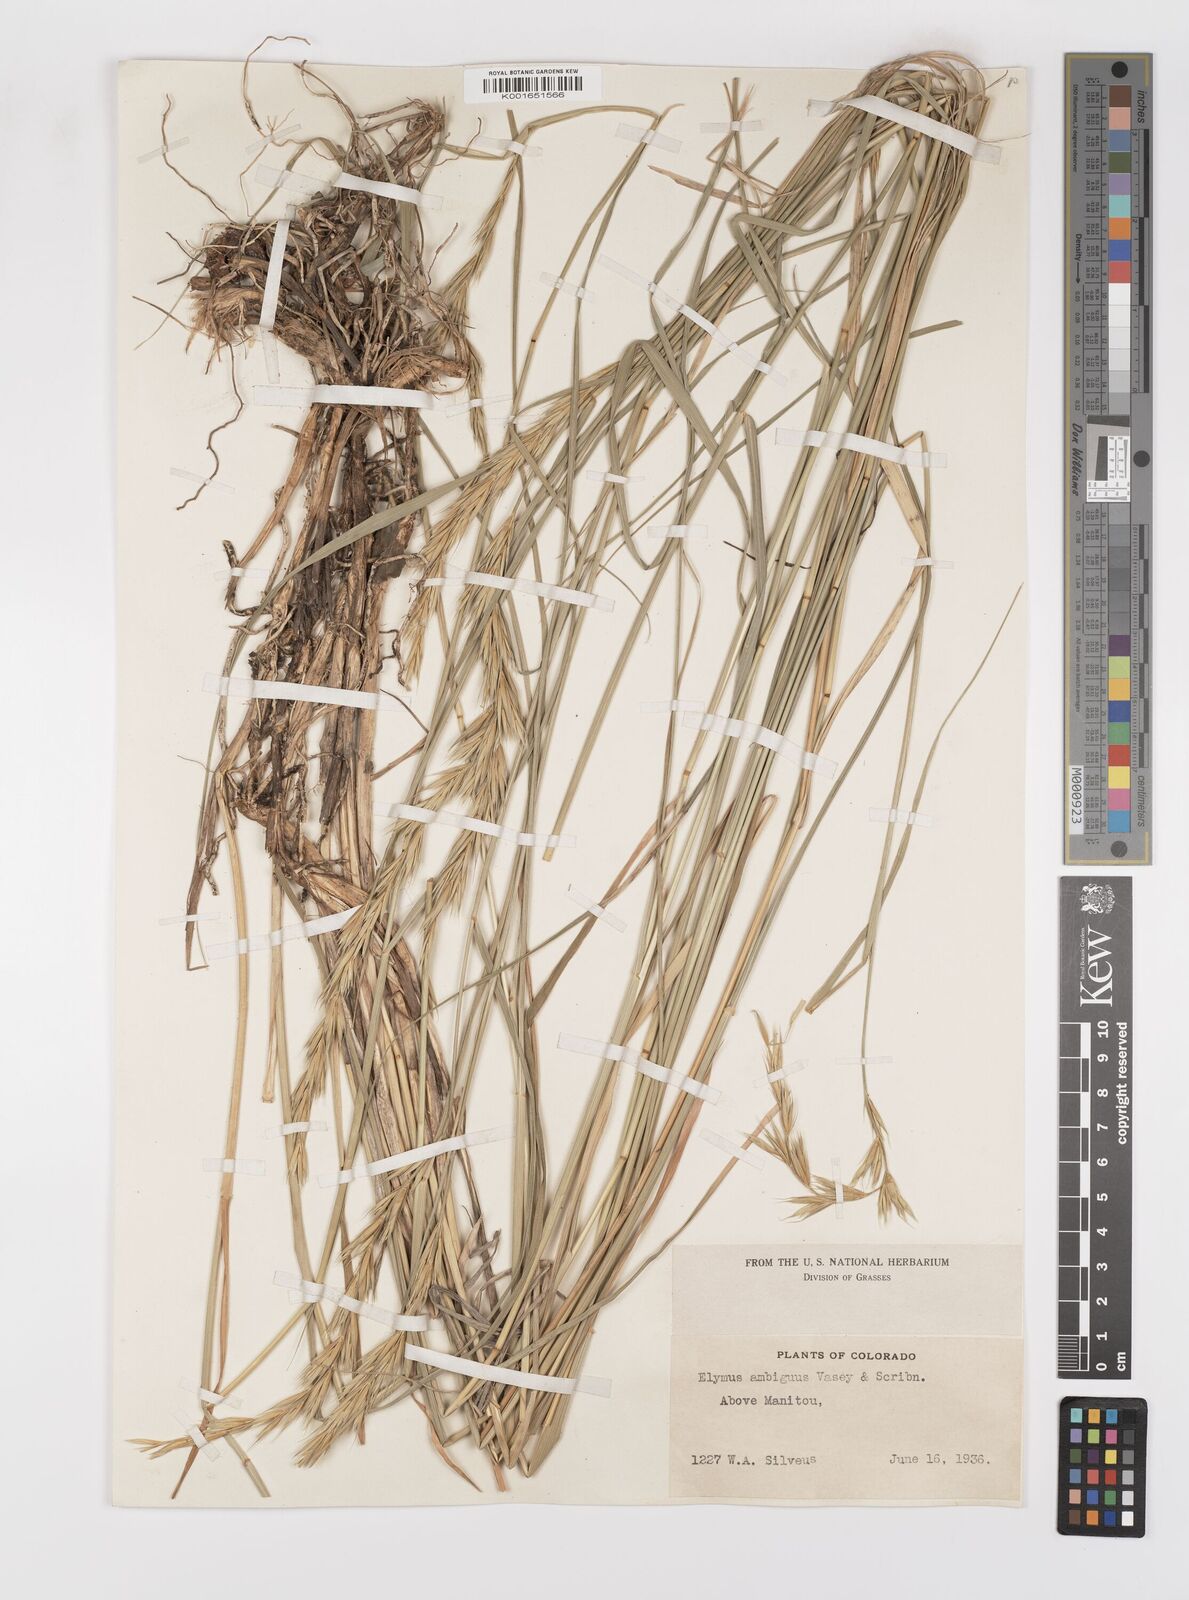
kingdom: Plantae
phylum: Tracheophyta
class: Liliopsida
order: Poales
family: Poaceae
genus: Leymus
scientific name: Leymus ambiguus
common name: Colorado wild rye
